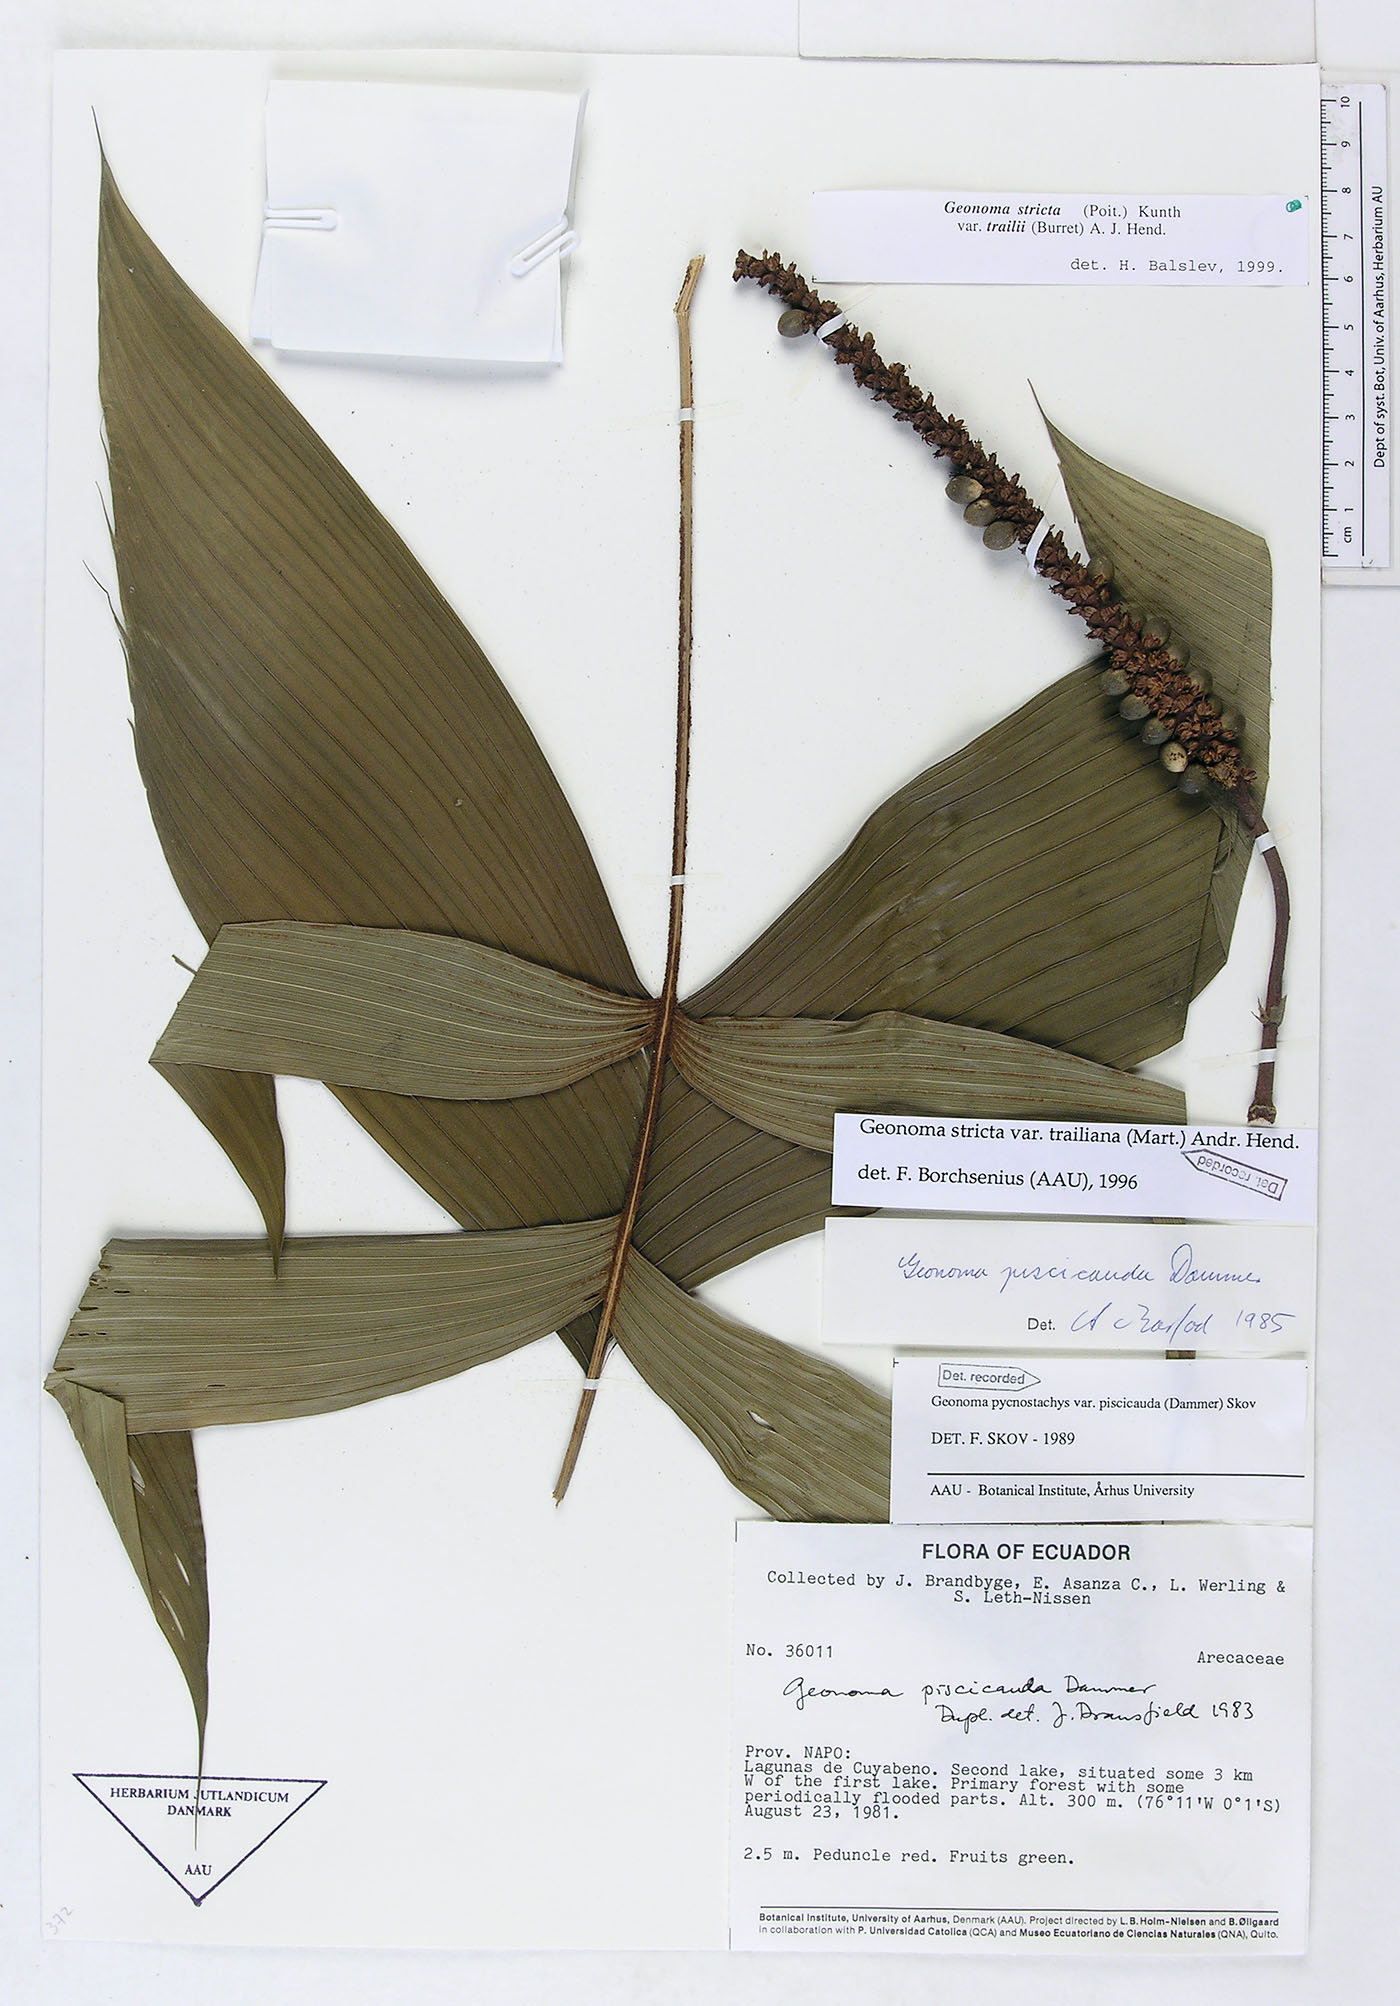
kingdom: Plantae
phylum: Tracheophyta
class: Liliopsida
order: Arecales
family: Arecaceae
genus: Geonoma
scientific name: Geonoma stricta
